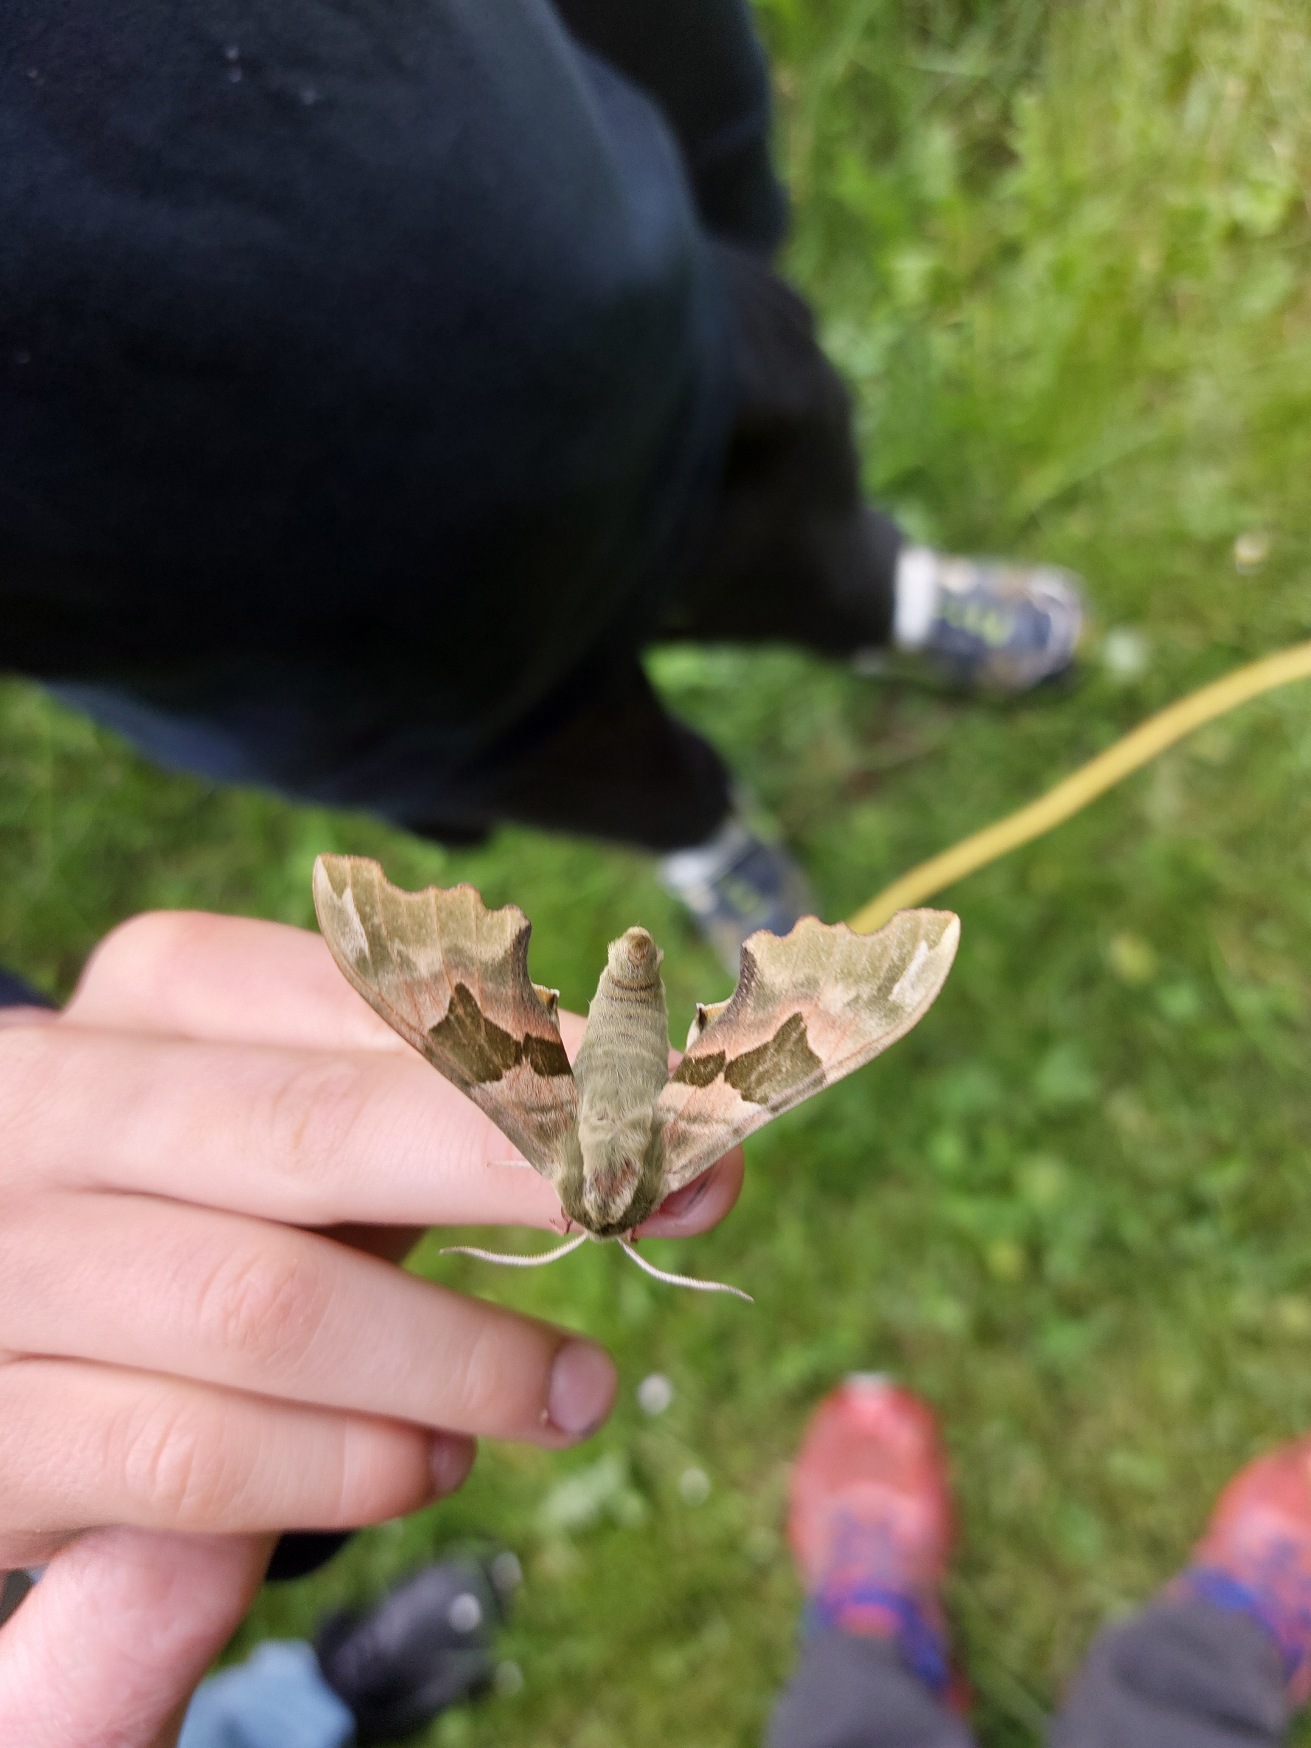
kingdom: Animalia
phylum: Arthropoda
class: Insecta
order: Lepidoptera
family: Sphingidae
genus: Mimas
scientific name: Mimas tiliae
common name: Lindesværmer
